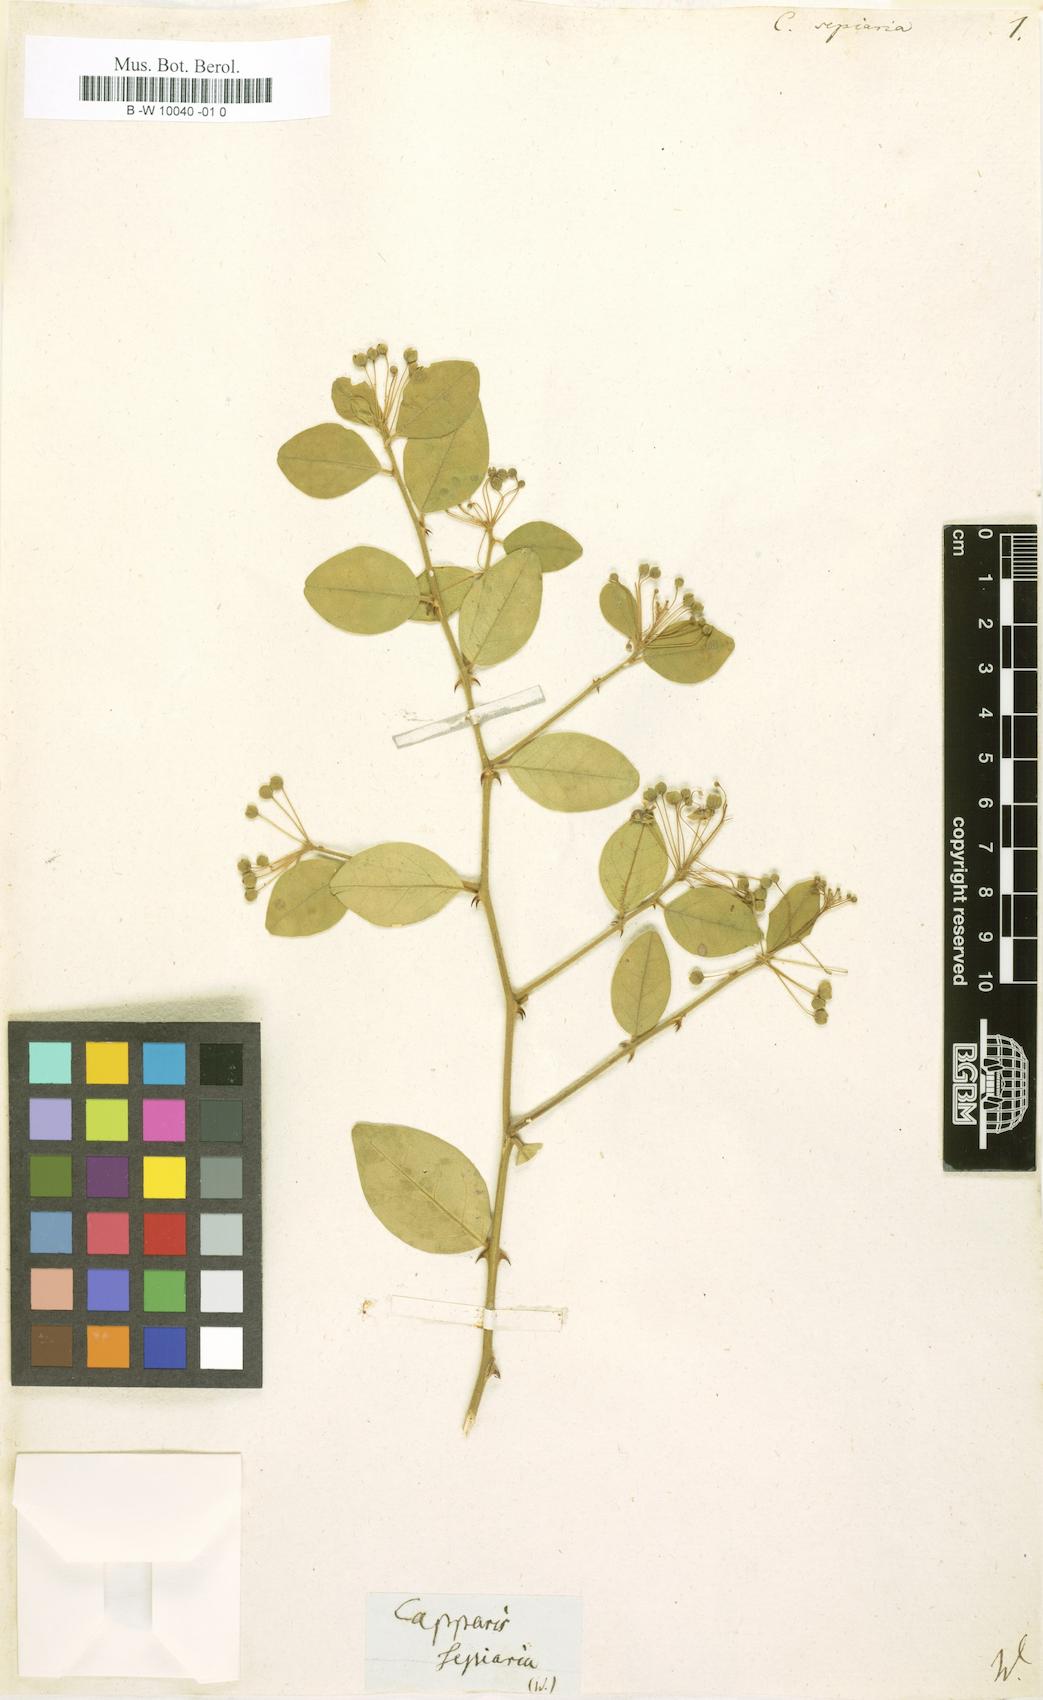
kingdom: Plantae
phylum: Tracheophyta
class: Magnoliopsida
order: Brassicales
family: Capparaceae
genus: Capparis
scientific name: Capparis sepiaria
